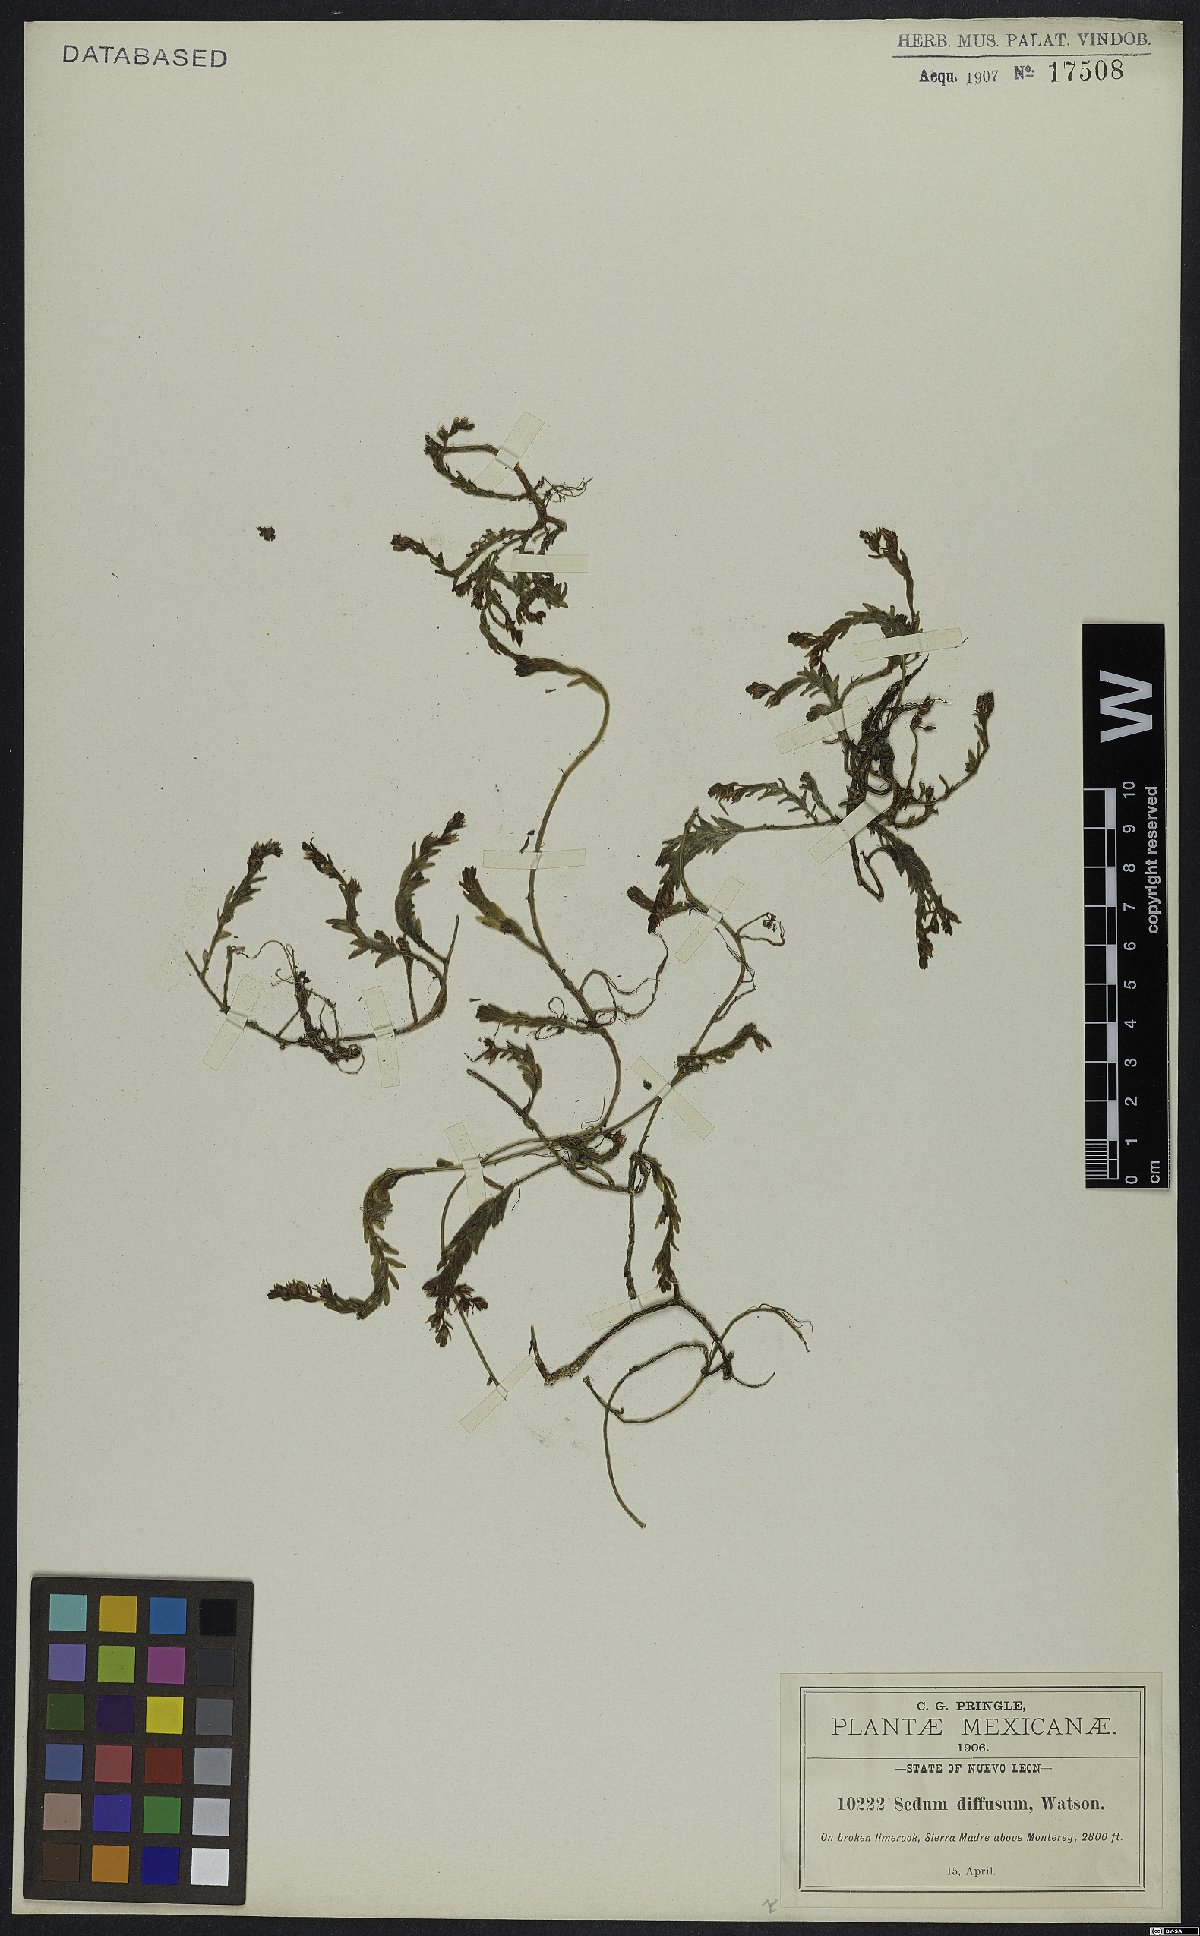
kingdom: Plantae
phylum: Tracheophyta
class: Magnoliopsida
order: Saxifragales
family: Crassulaceae
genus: Sedum
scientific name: Sedum diffusum
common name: Stonecrop
